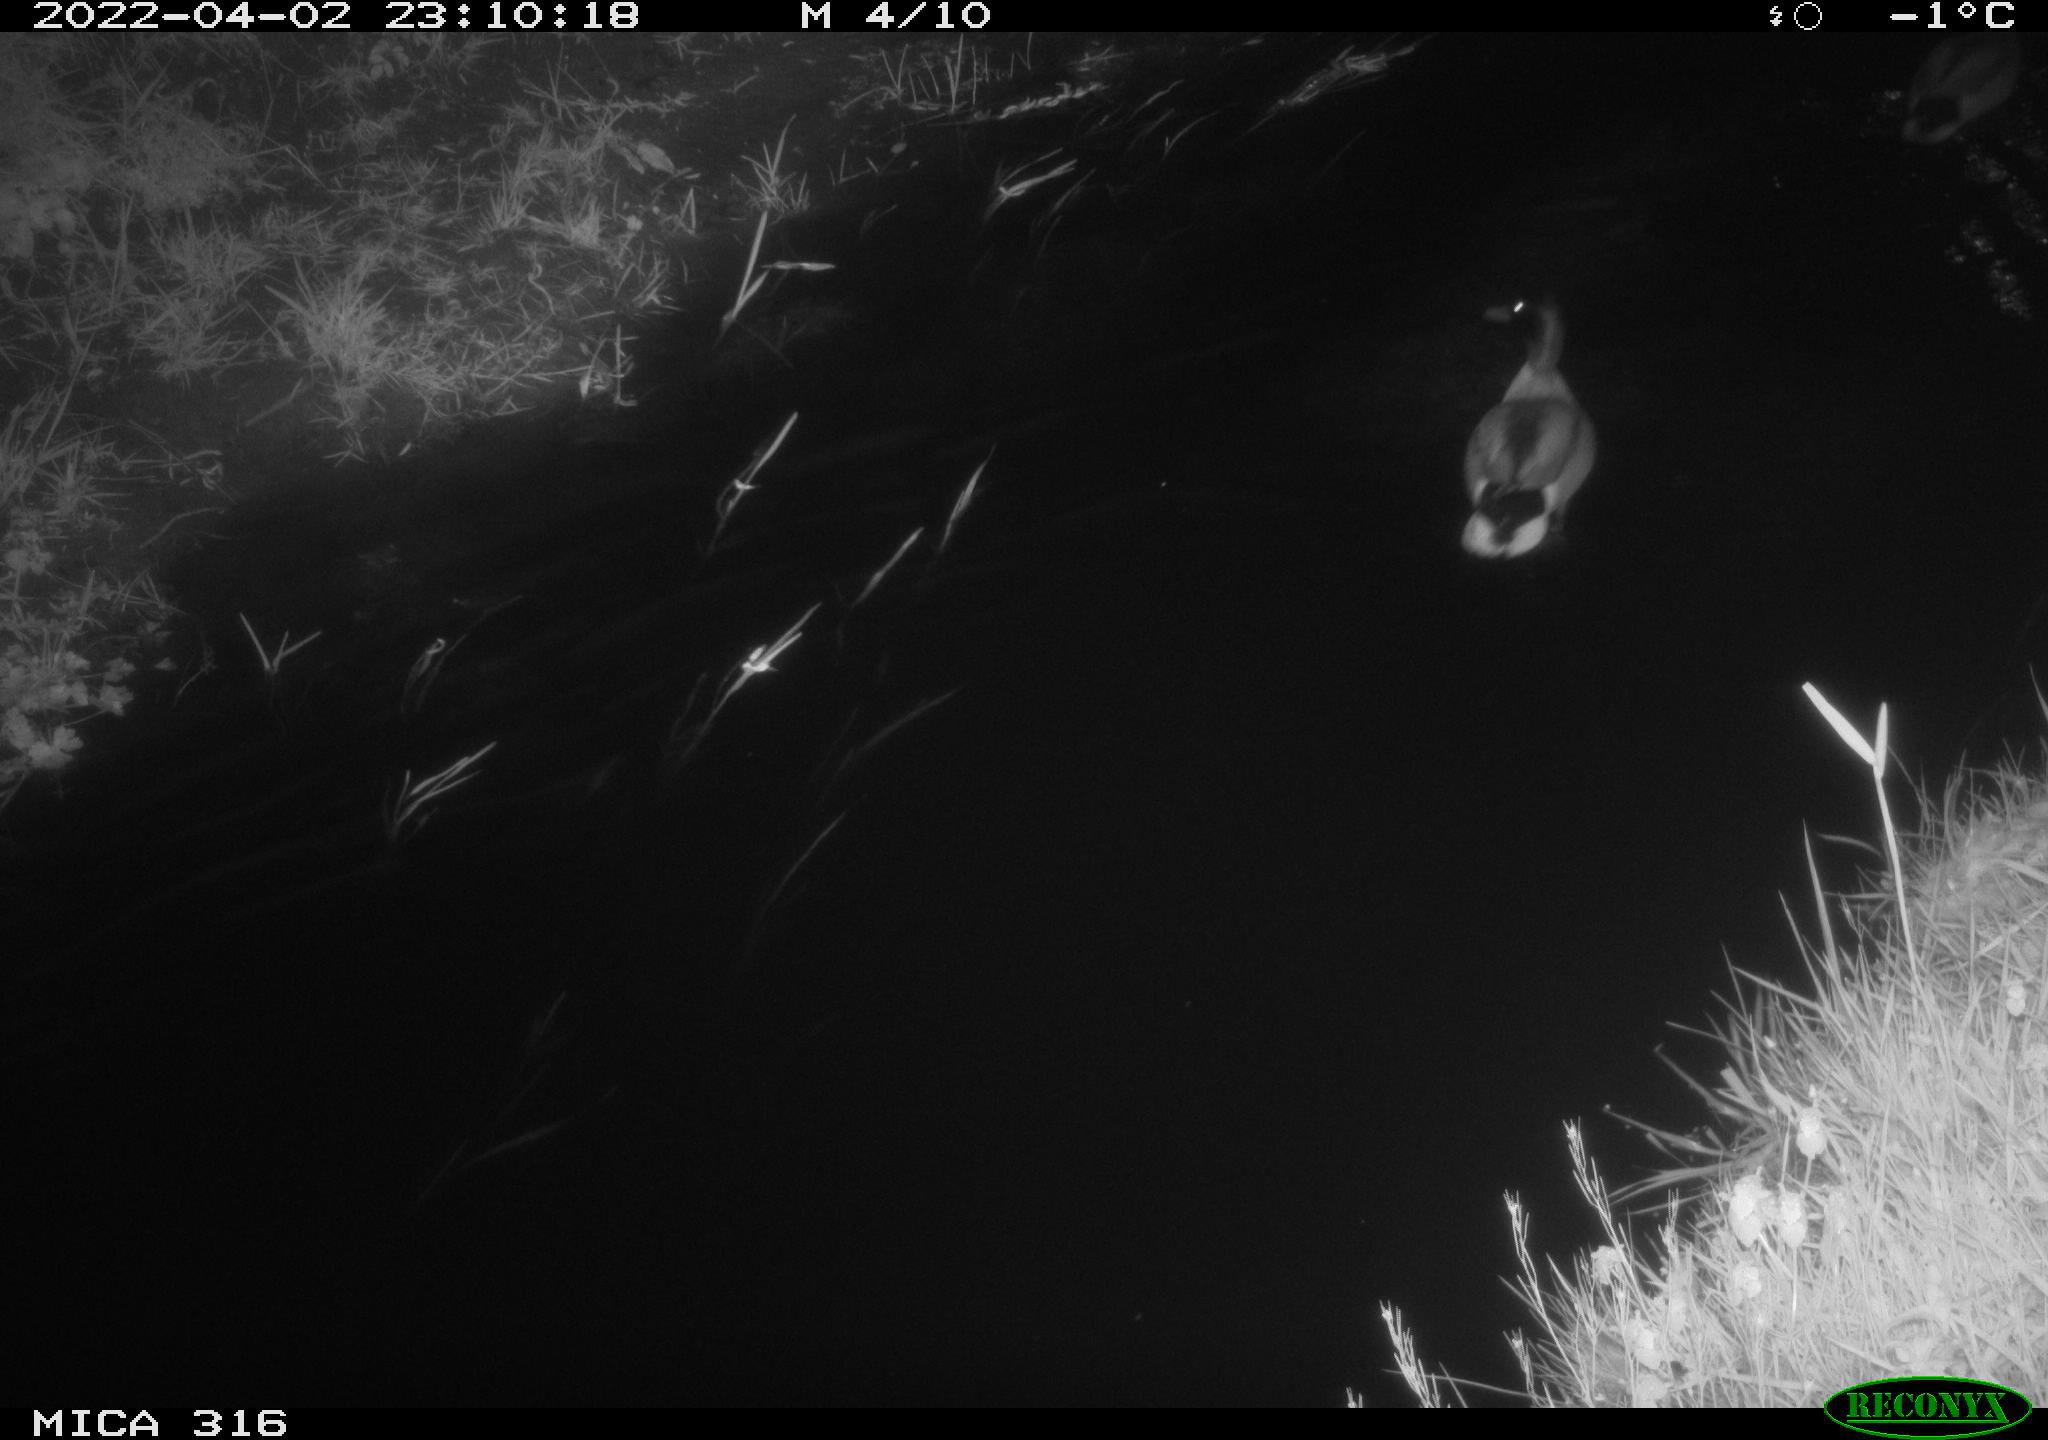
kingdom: Animalia
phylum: Chordata
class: Aves
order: Anseriformes
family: Anatidae
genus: Anas
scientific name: Anas platyrhynchos
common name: Mallard
